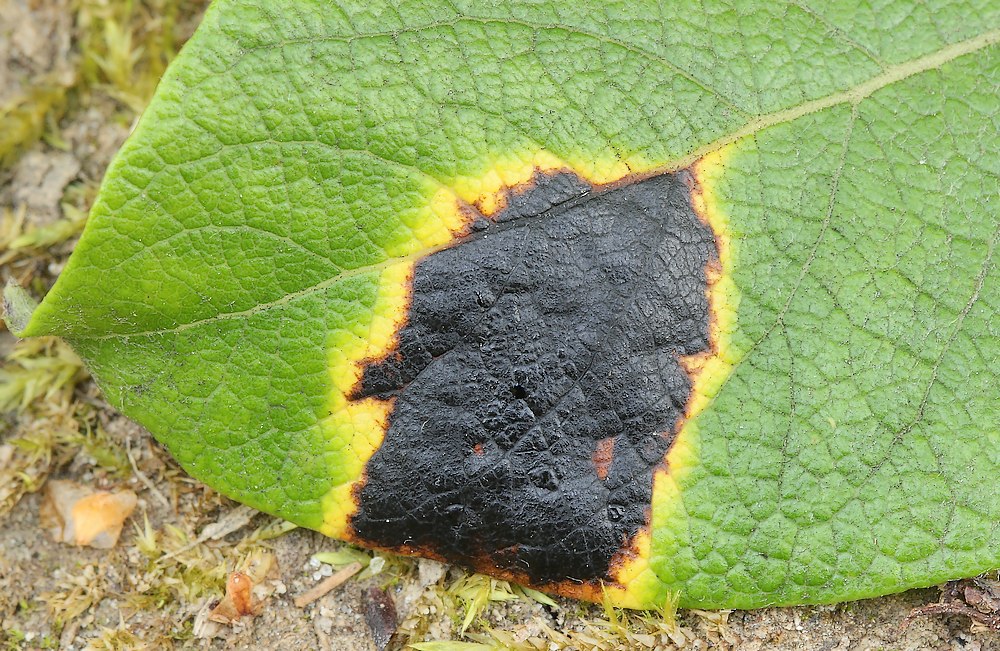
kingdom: Fungi
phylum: Ascomycota
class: Leotiomycetes
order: Rhytismatales
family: Rhytismataceae
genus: Rhytisma
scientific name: Rhytisma salicinum
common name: pile-rynkeplet
